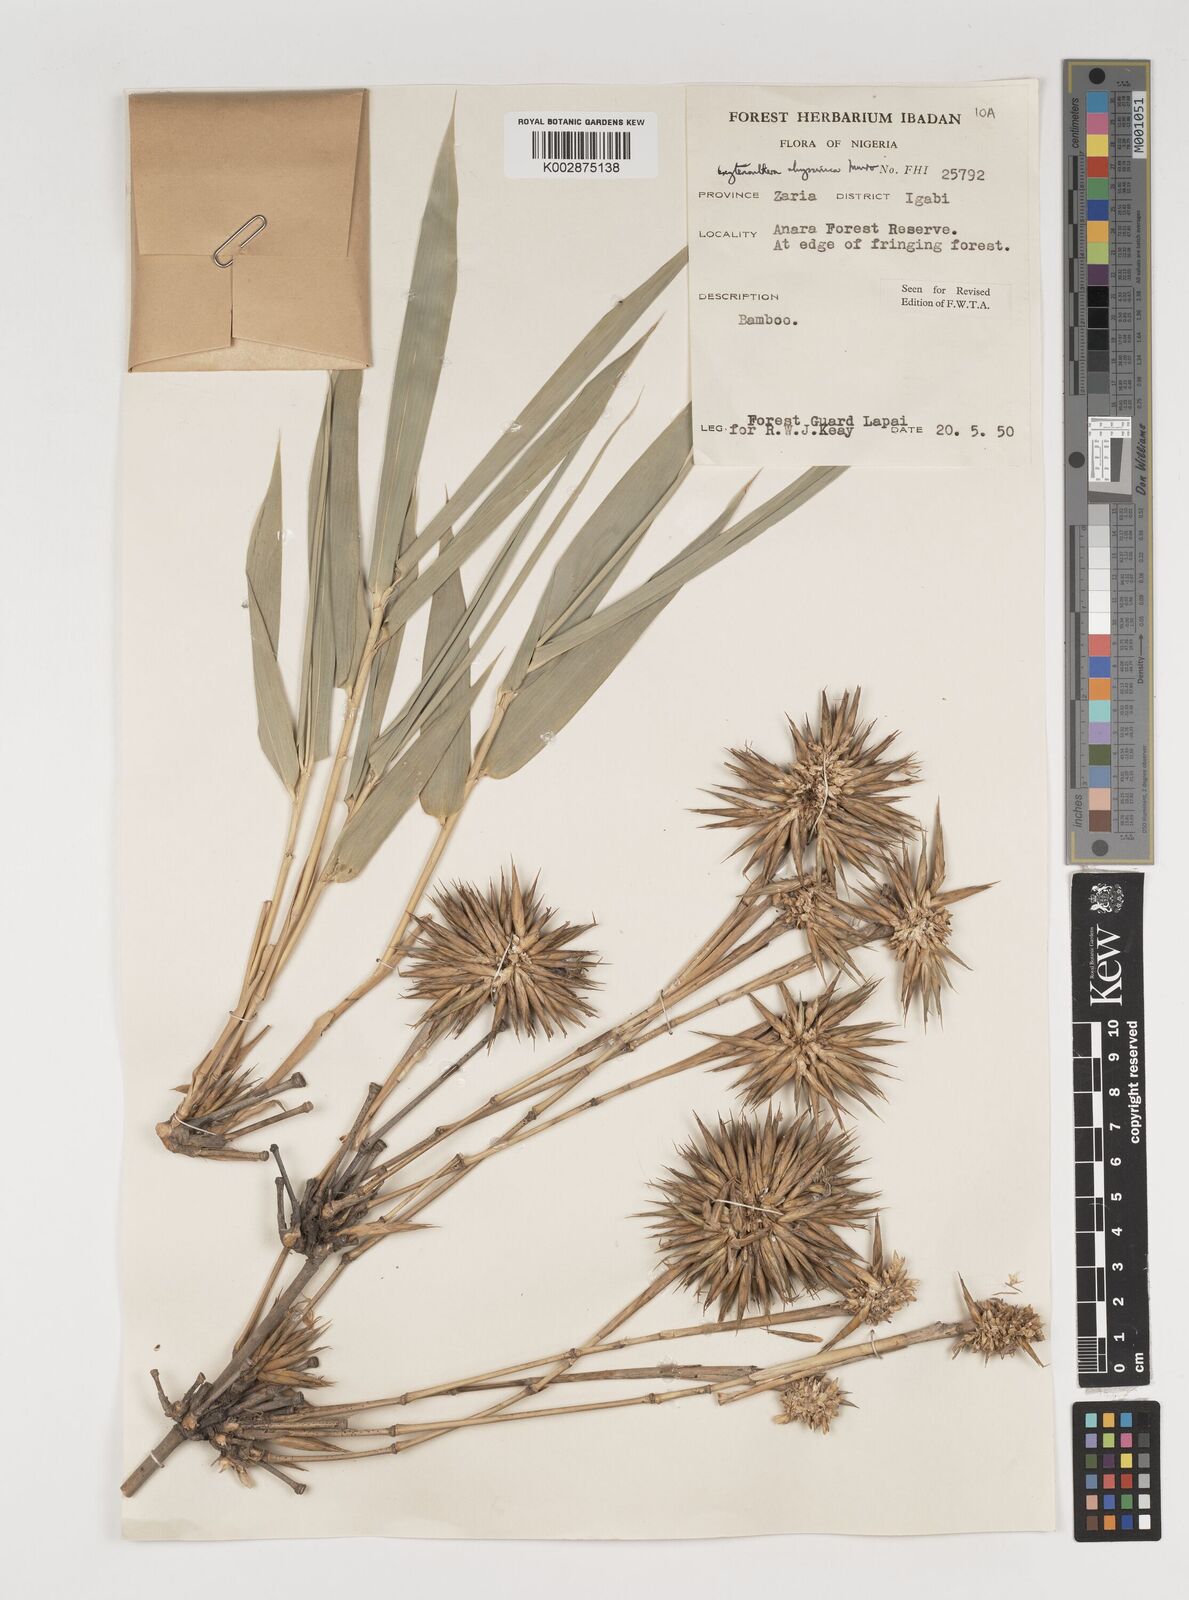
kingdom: Plantae
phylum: Tracheophyta
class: Liliopsida
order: Poales
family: Poaceae
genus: Oxytenanthera
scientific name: Oxytenanthera abyssinica
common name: Wine bamboo
